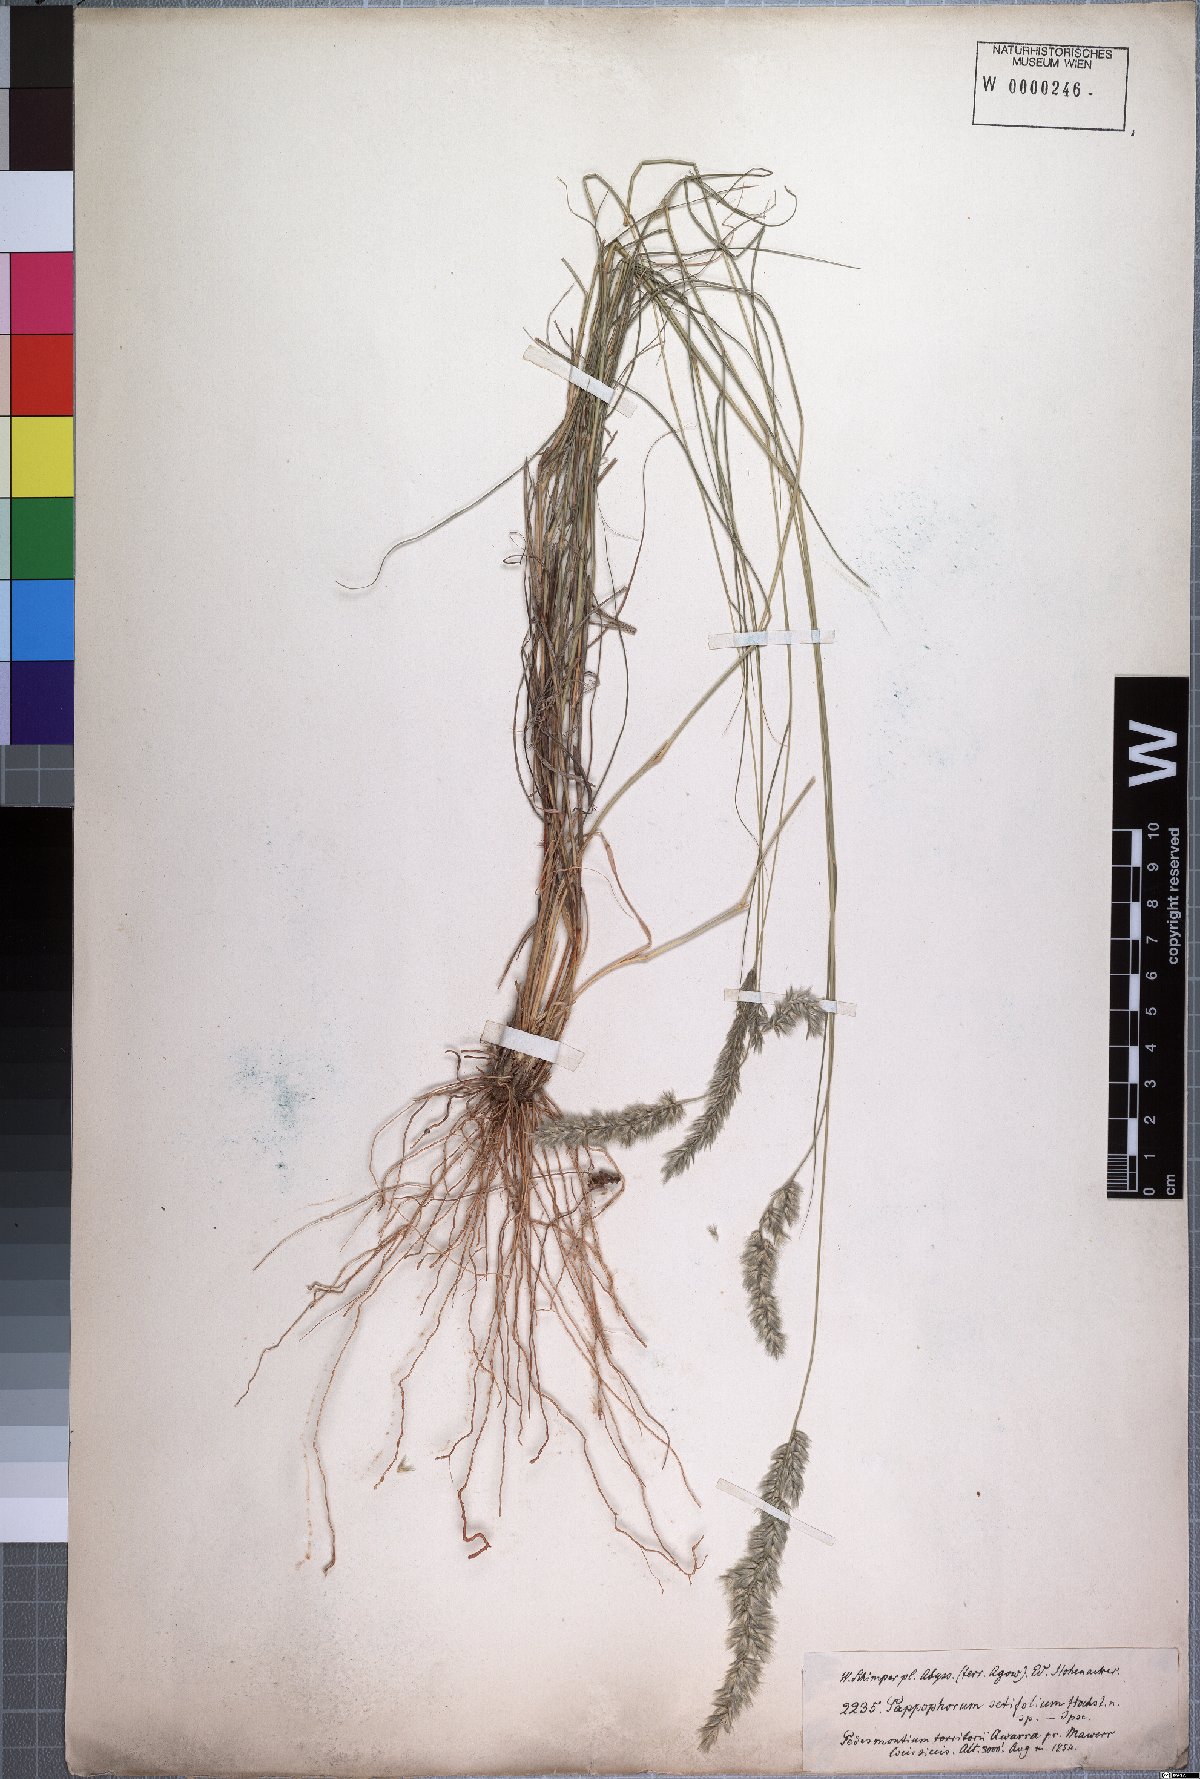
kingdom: Plantae
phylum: Tracheophyta
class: Liliopsida
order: Poales
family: Poaceae
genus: Enneapogon
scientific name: Enneapogon scoparius
